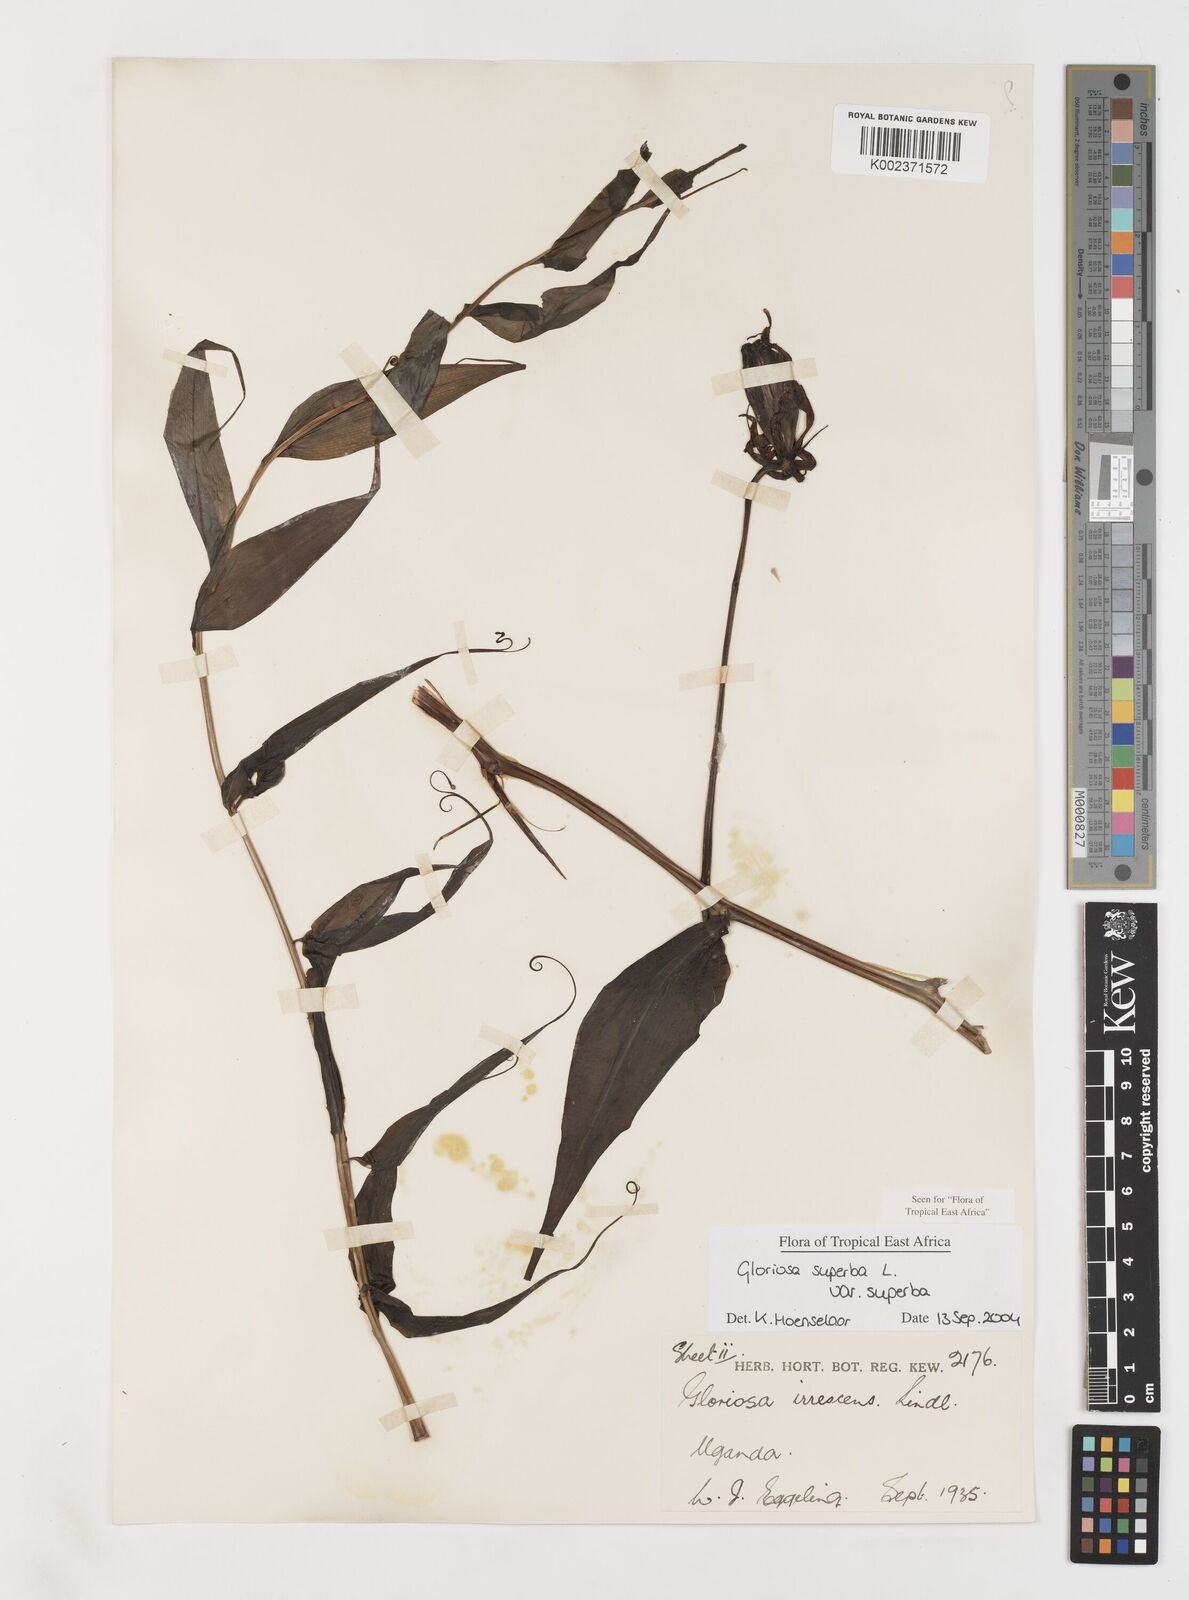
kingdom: Plantae
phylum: Tracheophyta
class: Liliopsida
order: Liliales
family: Colchicaceae
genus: Gloriosa
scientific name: Gloriosa simplex
